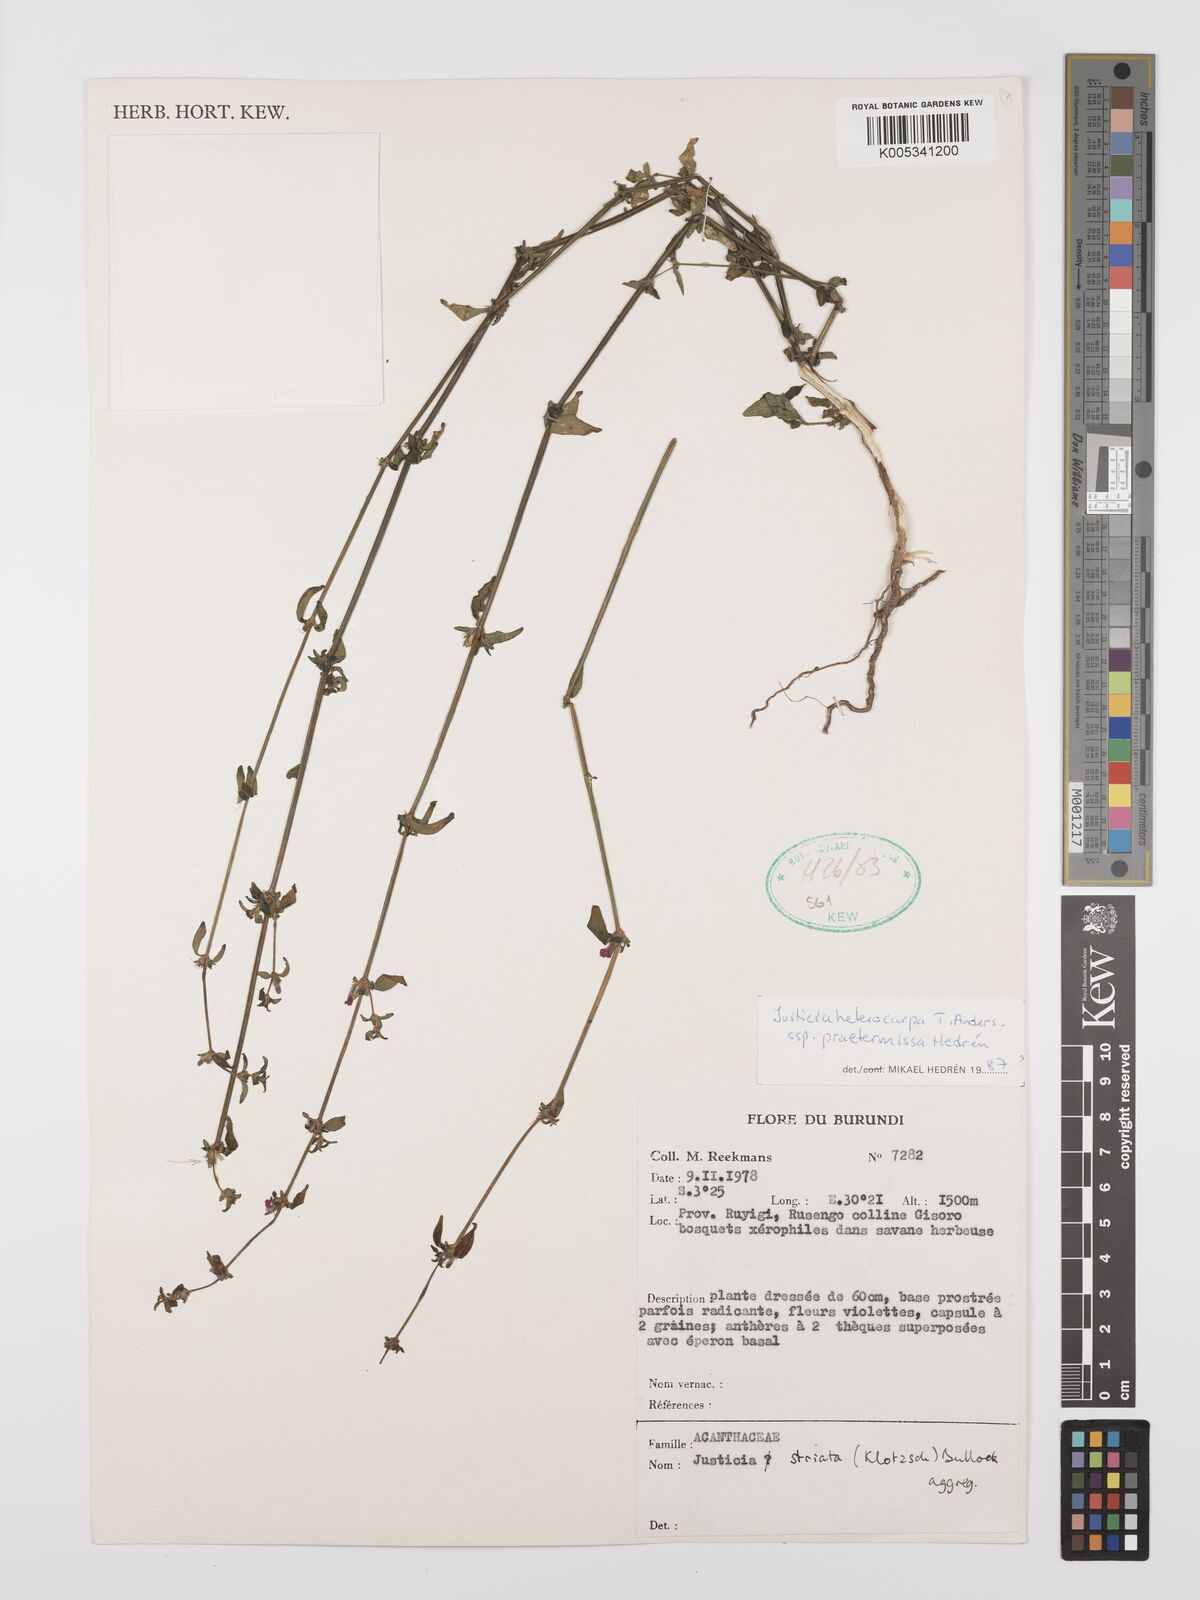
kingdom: Plantae
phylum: Tracheophyta
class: Magnoliopsida
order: Lamiales
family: Acanthaceae
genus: Justicia
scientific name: Justicia heterocarpa
